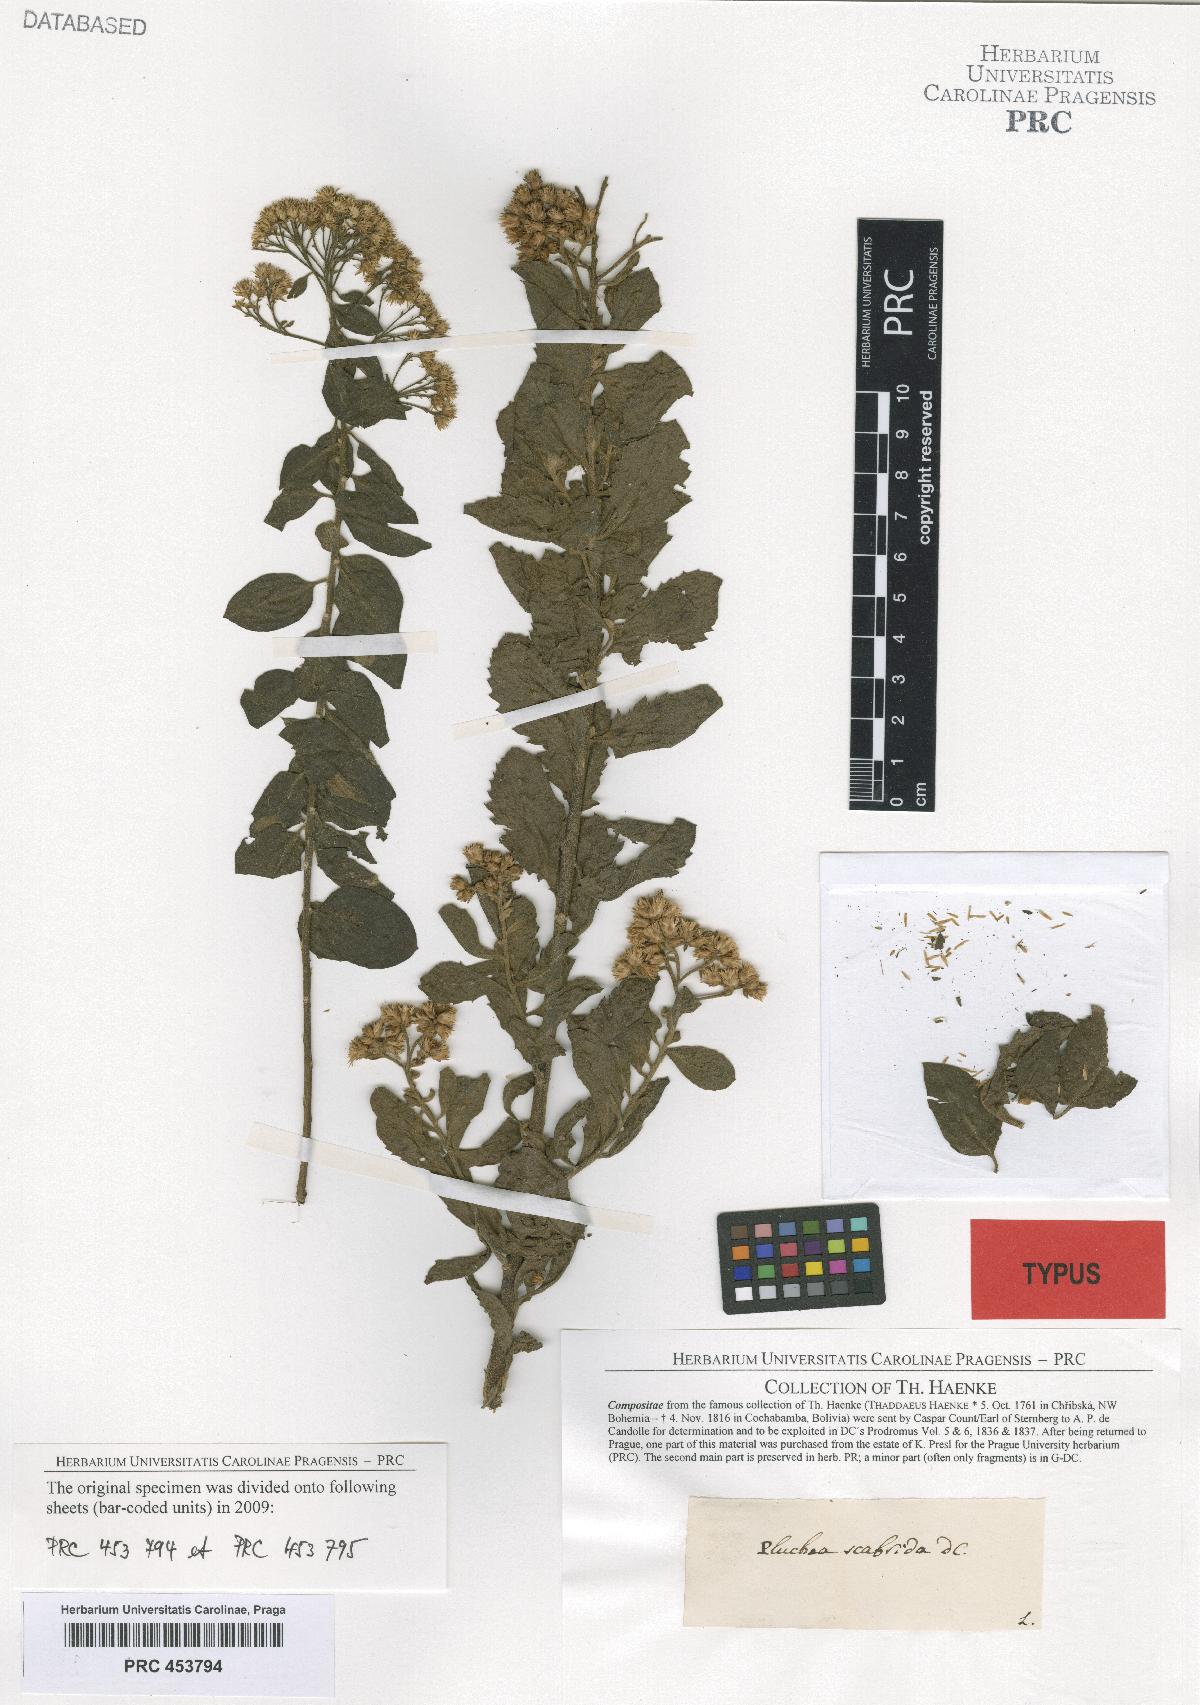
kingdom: Plantae
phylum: Tracheophyta
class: Magnoliopsida
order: Asterales
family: Asteraceae
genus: Pluchea
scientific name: Pluchea scabrida
